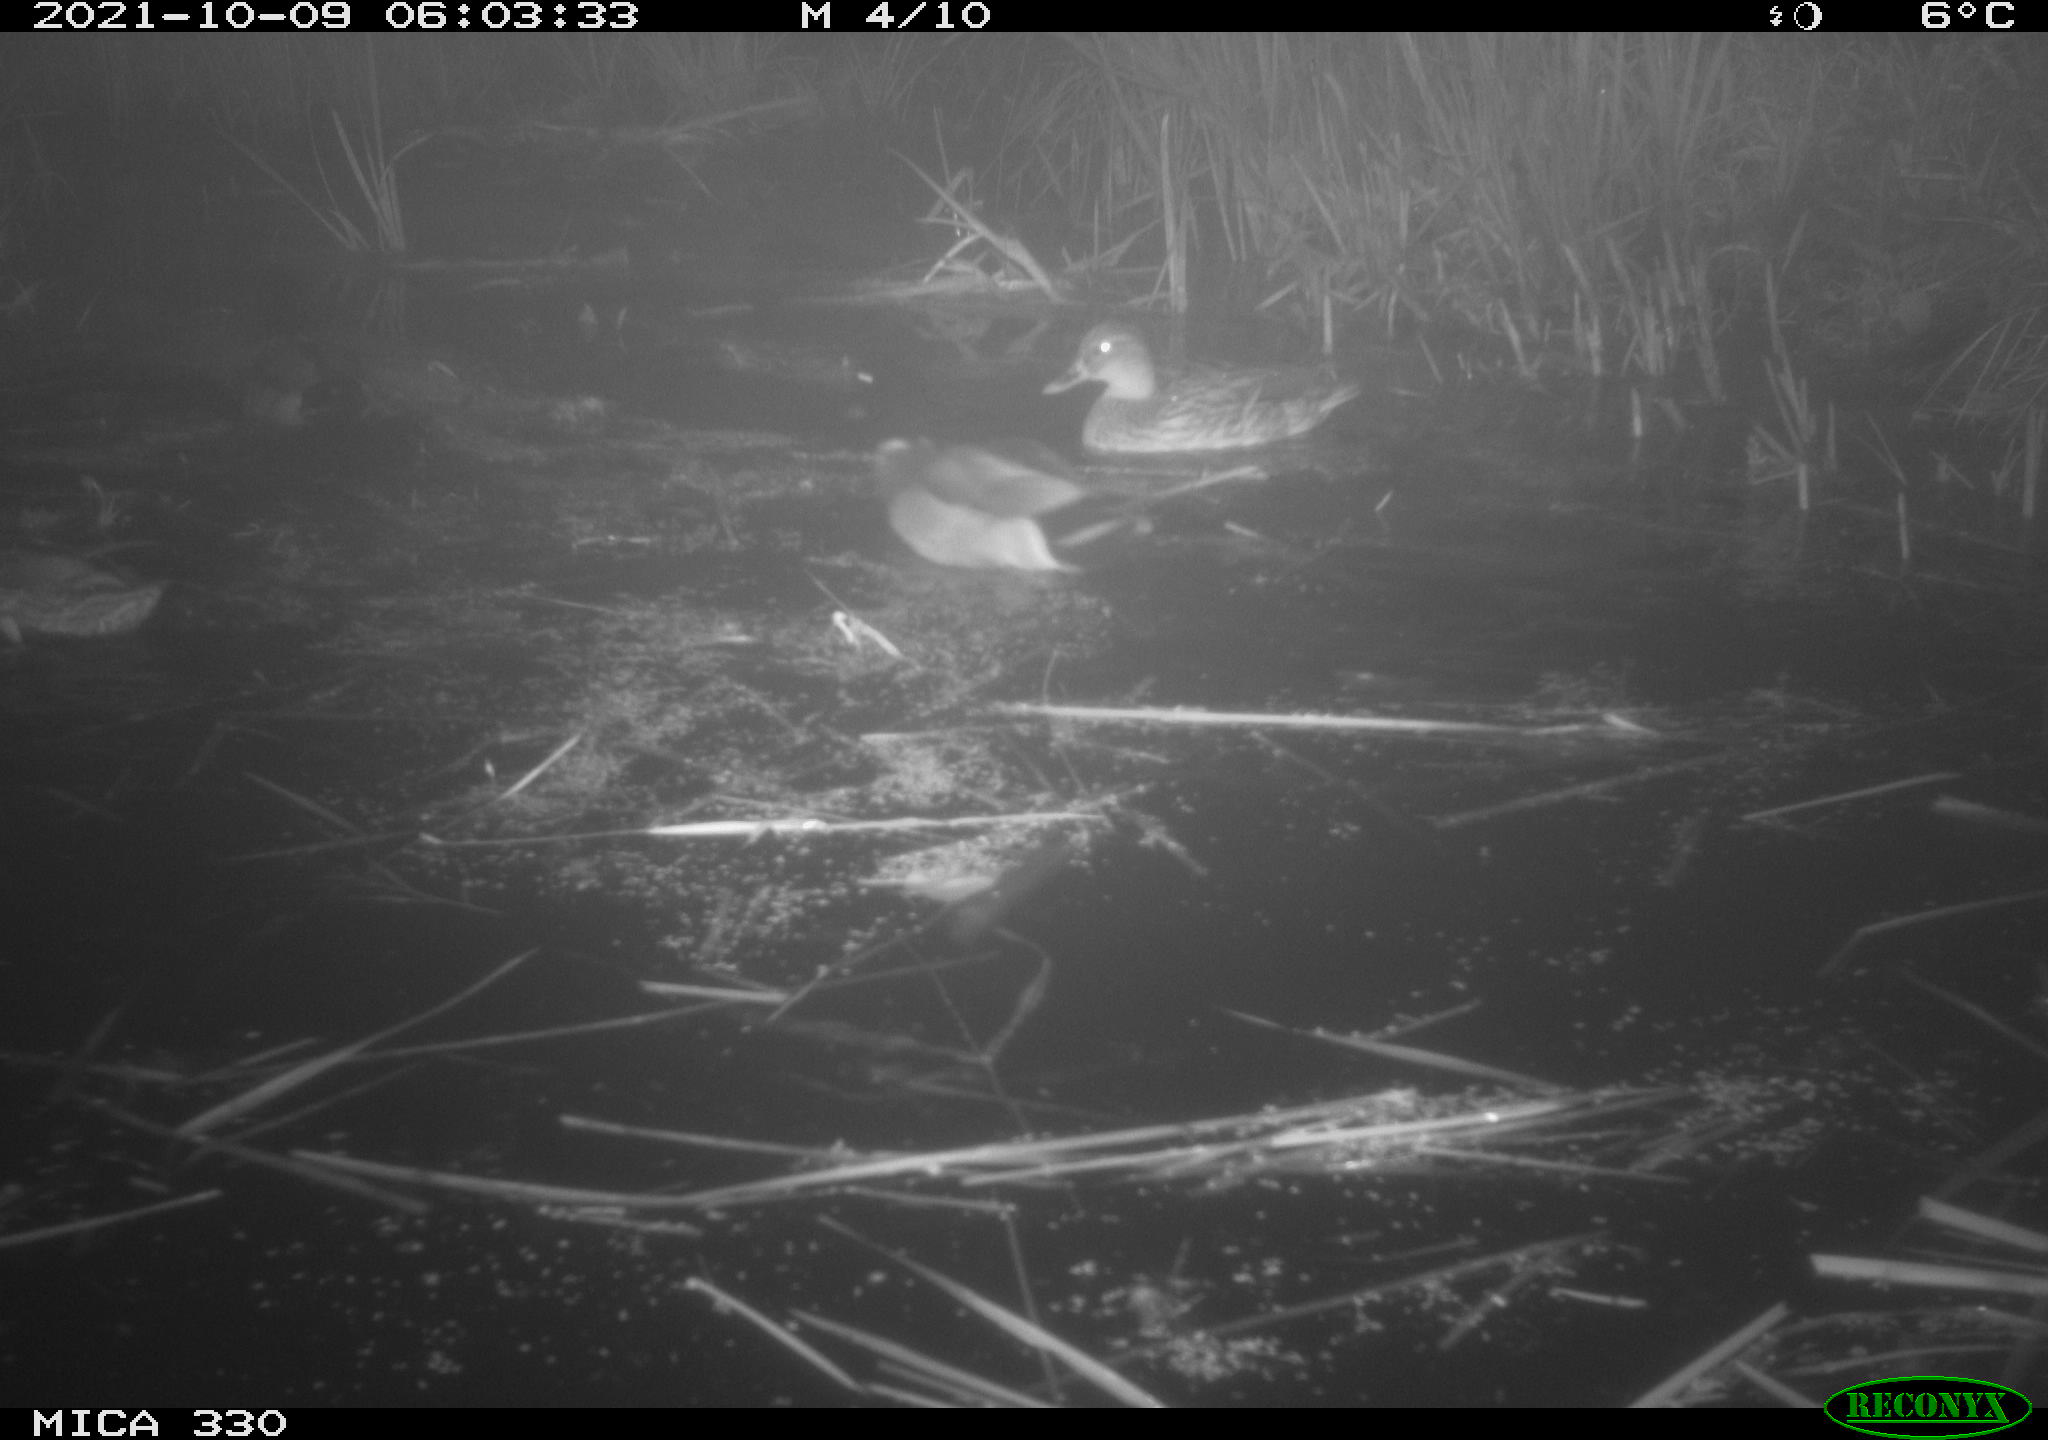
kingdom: Animalia
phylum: Chordata
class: Aves
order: Anseriformes
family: Anatidae
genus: Anas
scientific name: Anas platyrhynchos
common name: Mallard
